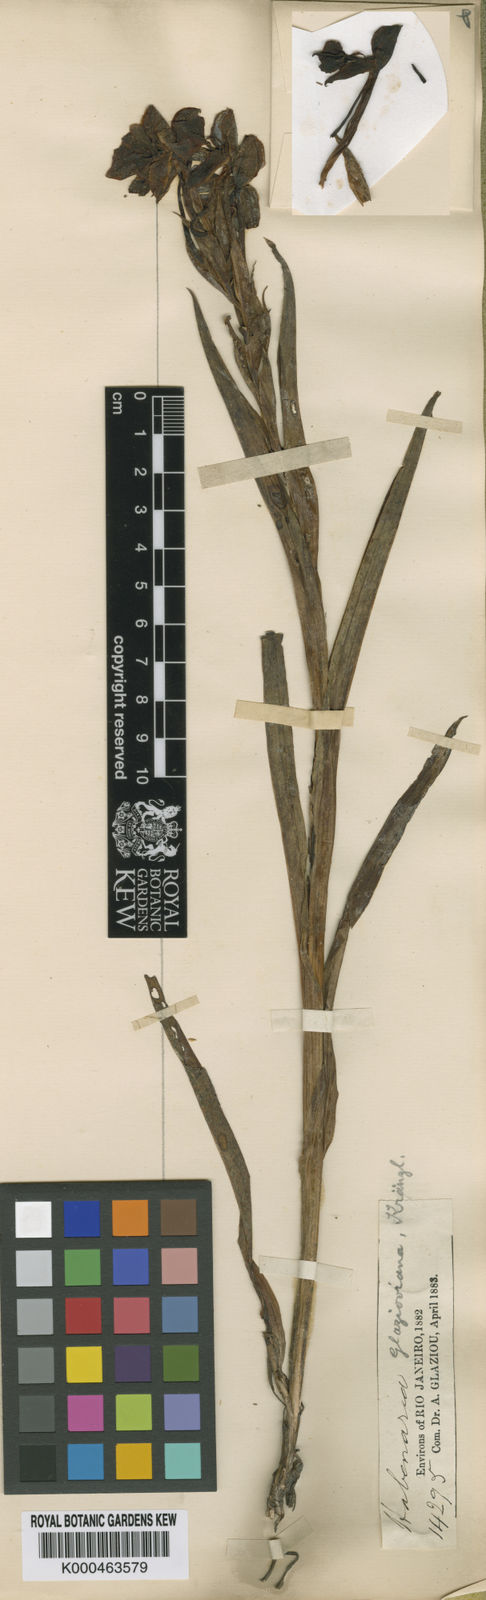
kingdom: Plantae
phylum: Tracheophyta
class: Liliopsida
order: Asparagales
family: Orchidaceae
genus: Habenaria
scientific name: Habenaria glazioviana
